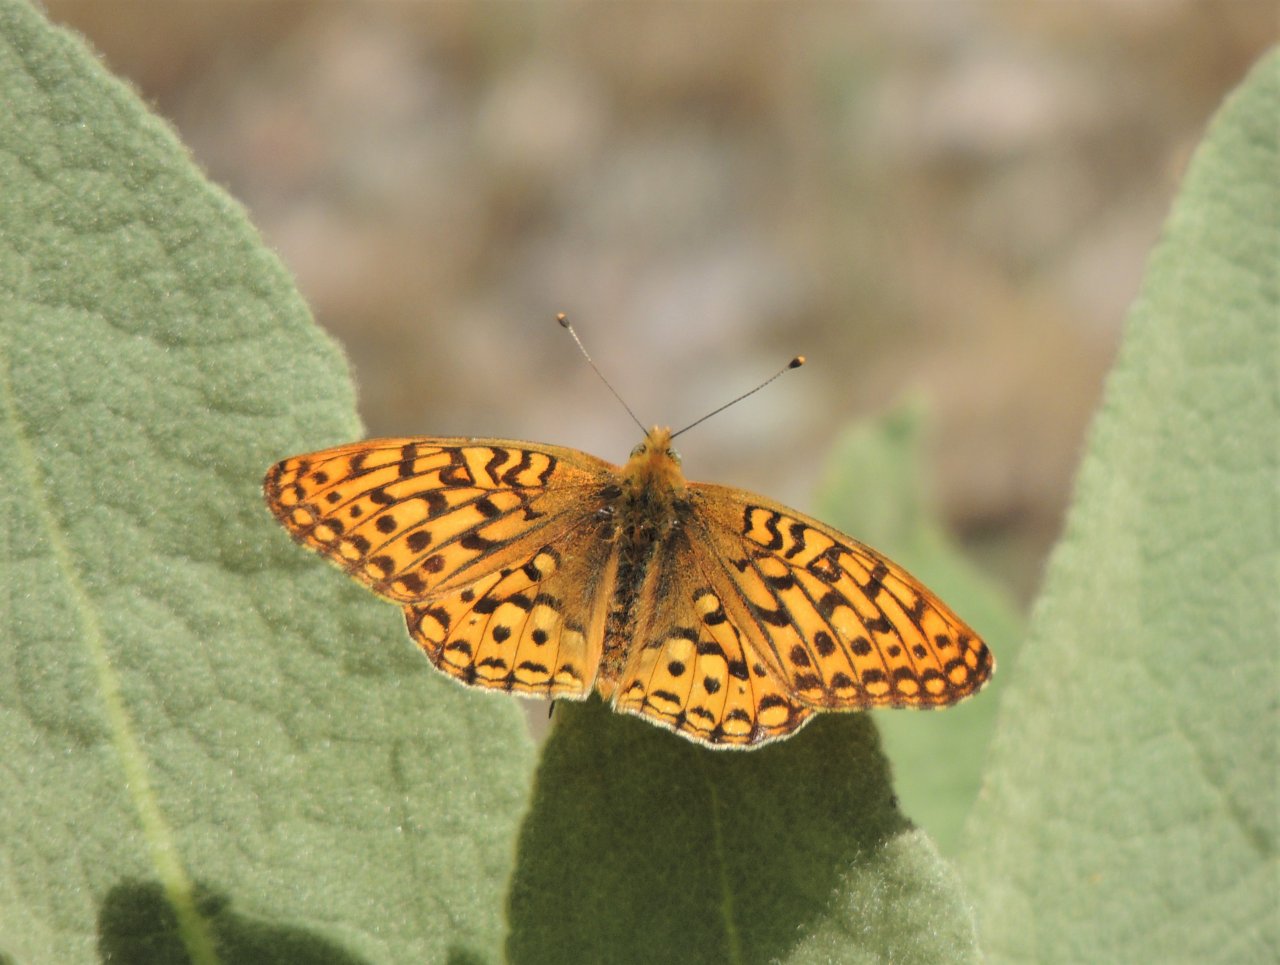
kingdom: Animalia
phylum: Arthropoda
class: Insecta
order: Lepidoptera
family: Nymphalidae
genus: Speyeria
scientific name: Speyeria coronis
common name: Coronis Fritillary
